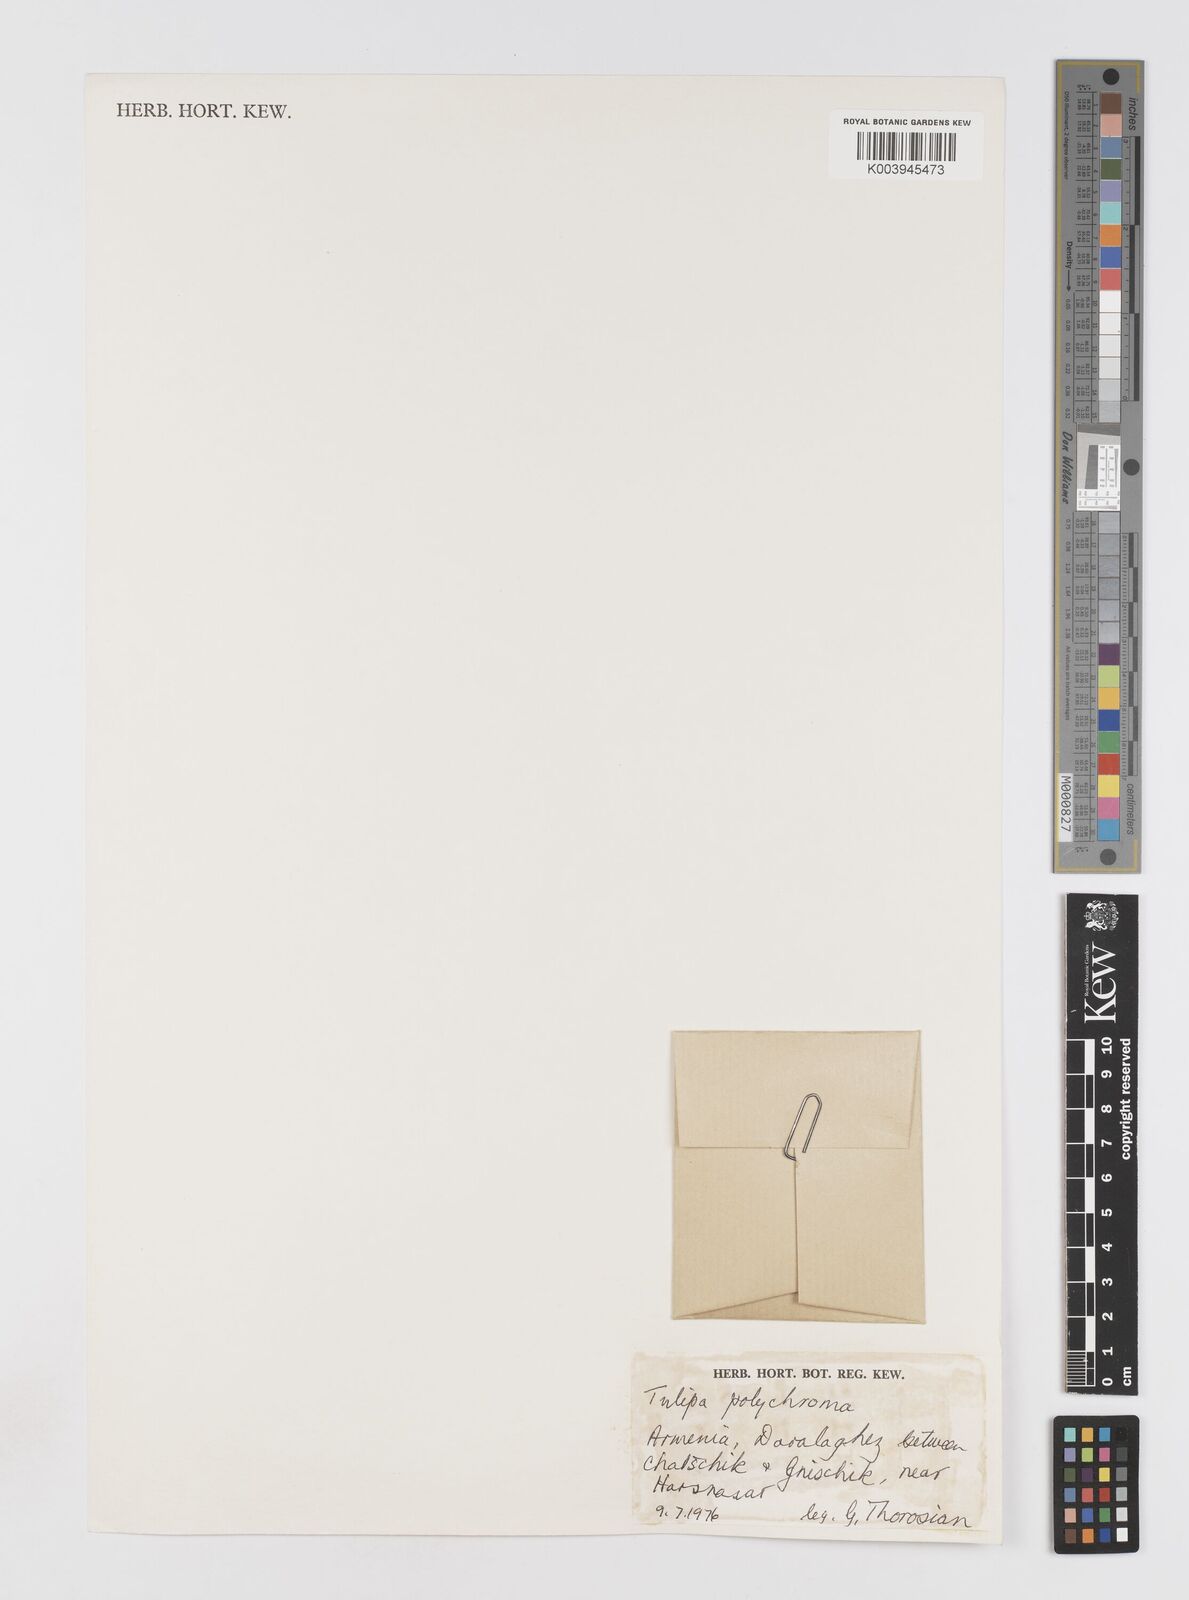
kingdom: Plantae
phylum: Tracheophyta
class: Liliopsida
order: Liliales
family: Liliaceae
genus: Tulipa
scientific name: Tulipa biflora
